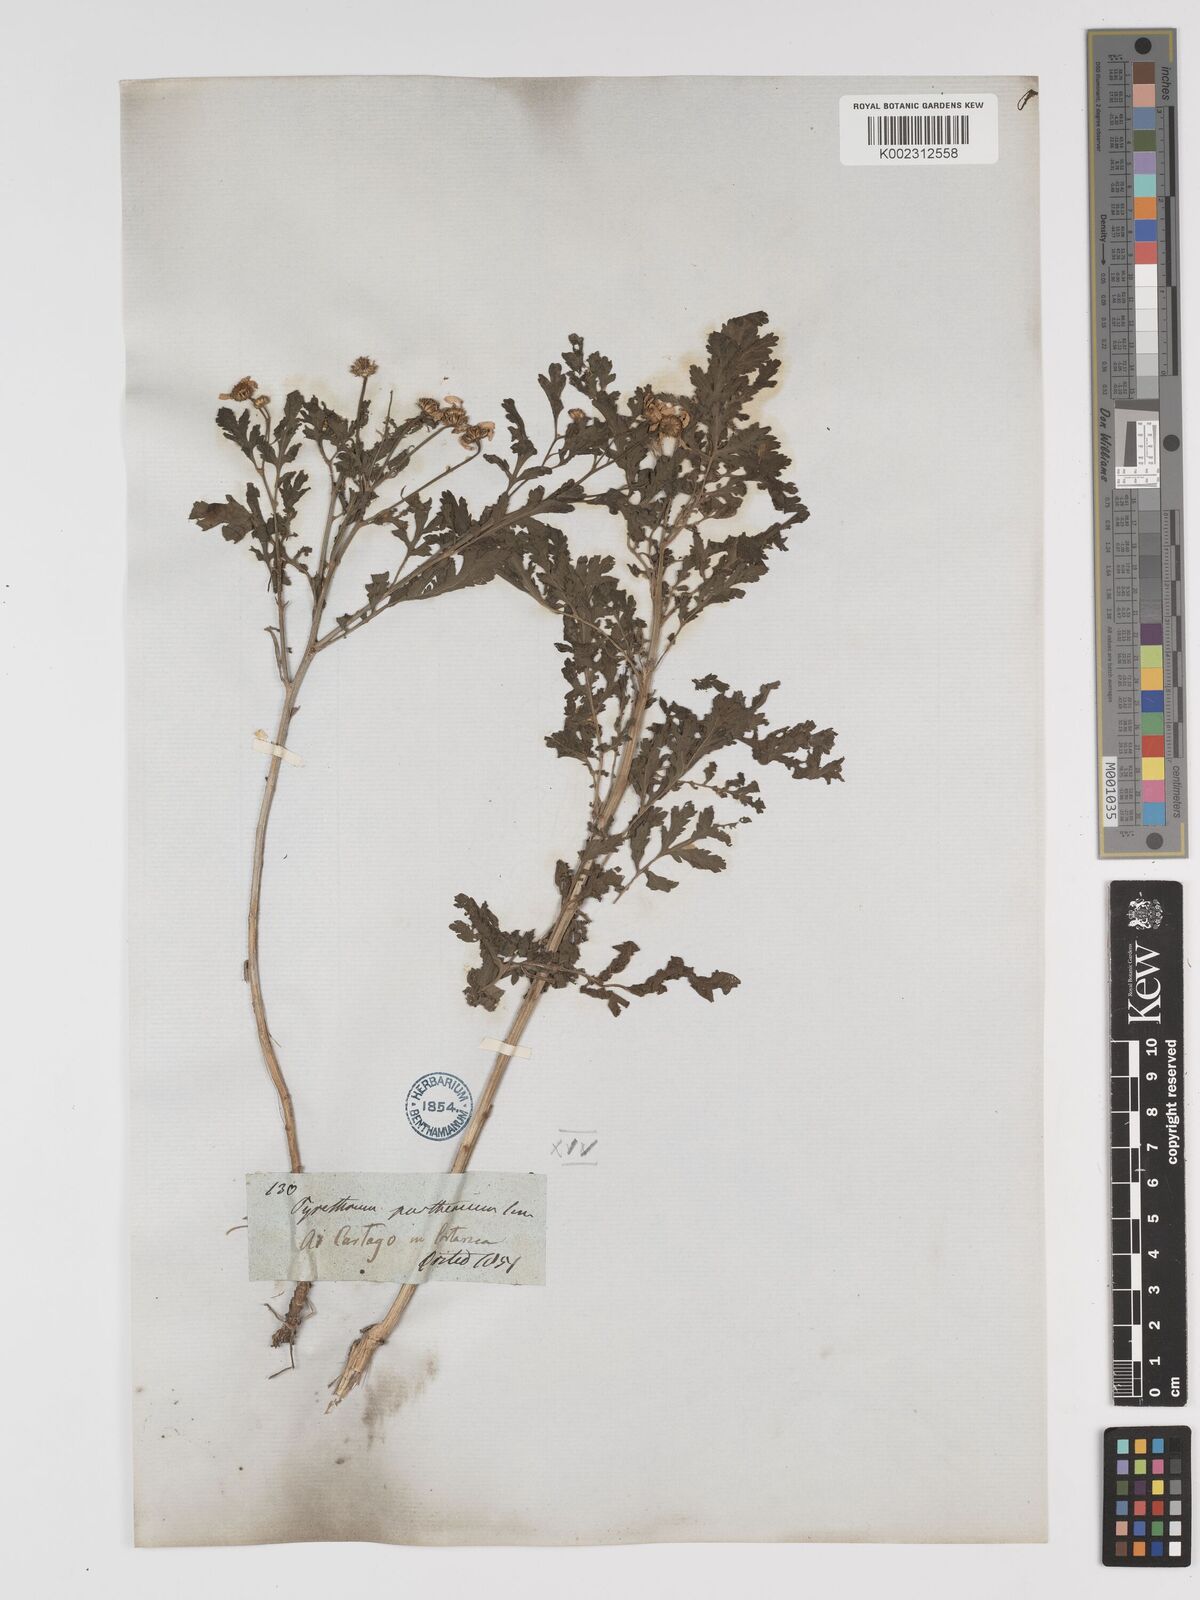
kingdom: Plantae
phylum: Tracheophyta
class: Magnoliopsida
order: Asterales
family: Asteraceae
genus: Tanacetum
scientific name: Tanacetum parthenium
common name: Feverfew
